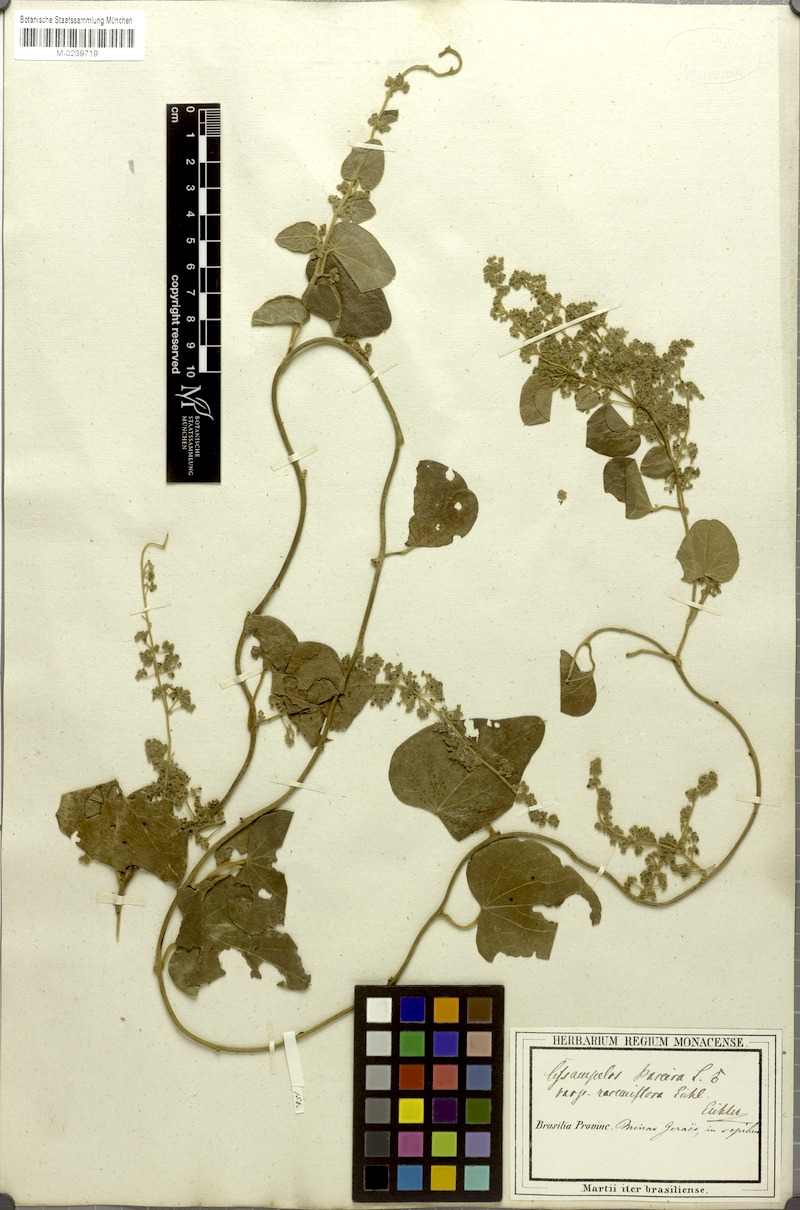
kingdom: Plantae
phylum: Tracheophyta
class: Magnoliopsida
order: Ranunculales
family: Menispermaceae
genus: Cissampelos
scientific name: Cissampelos pareira
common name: Velvetleaf
